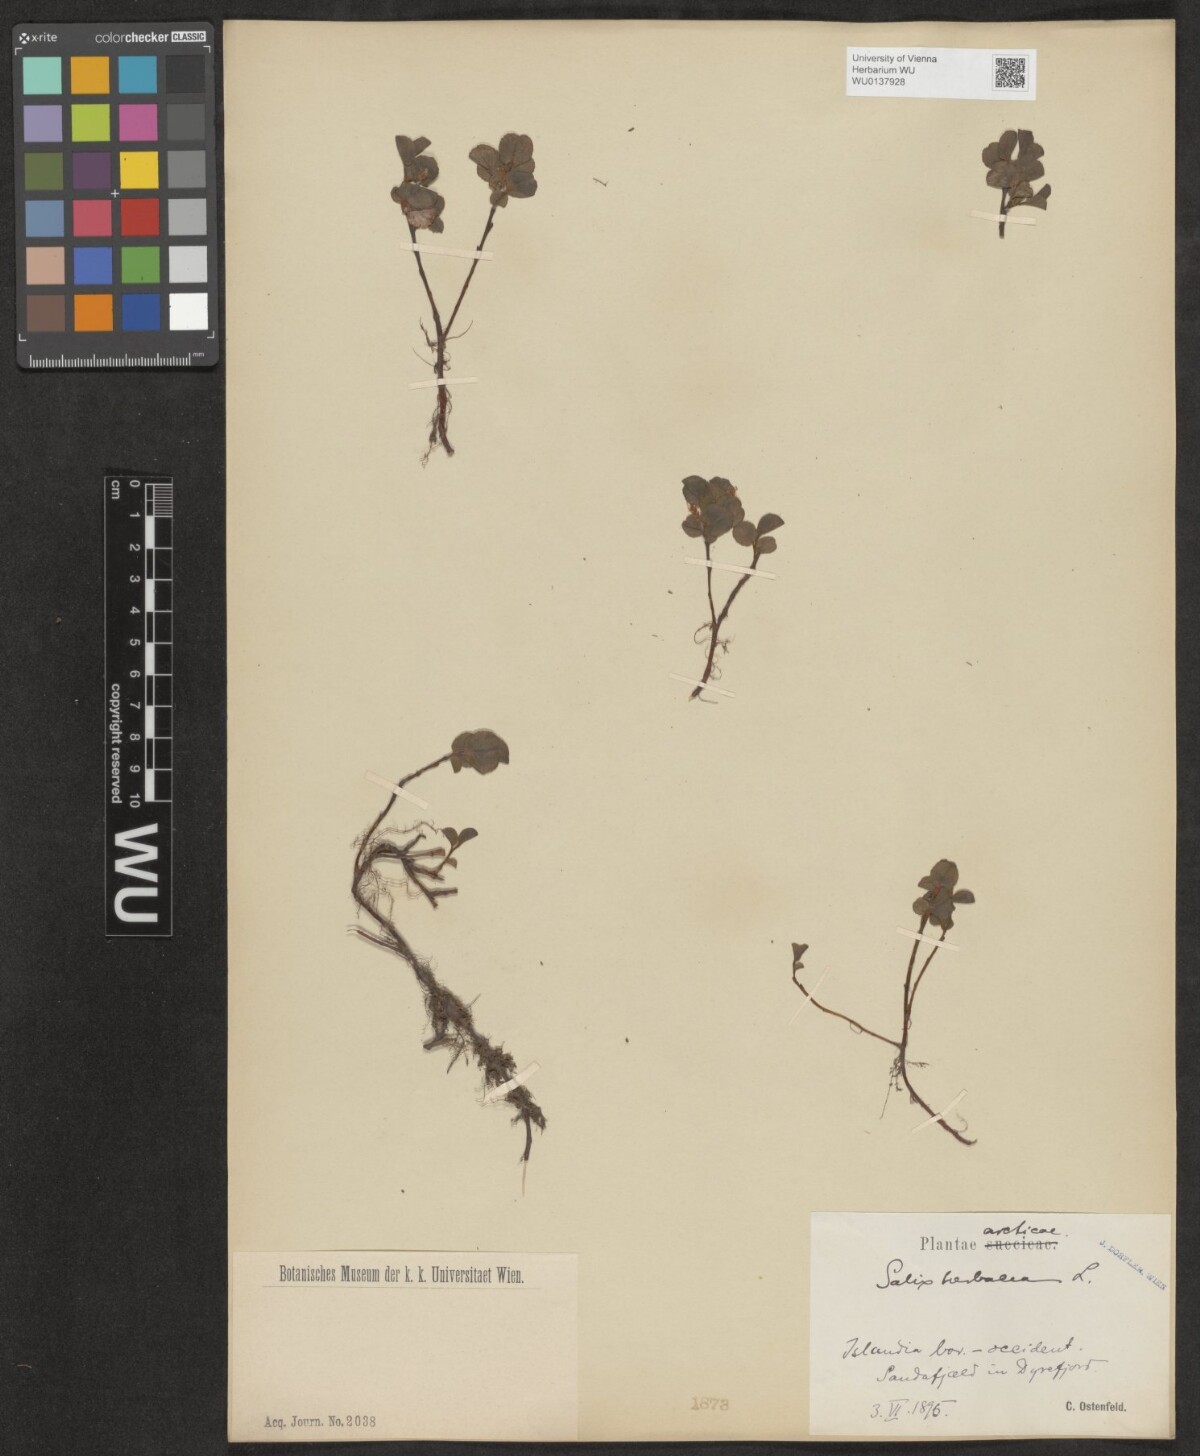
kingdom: Plantae
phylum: Tracheophyta
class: Magnoliopsida
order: Malpighiales
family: Salicaceae
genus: Salix
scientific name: Salix herbacea
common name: Dwarf willow
